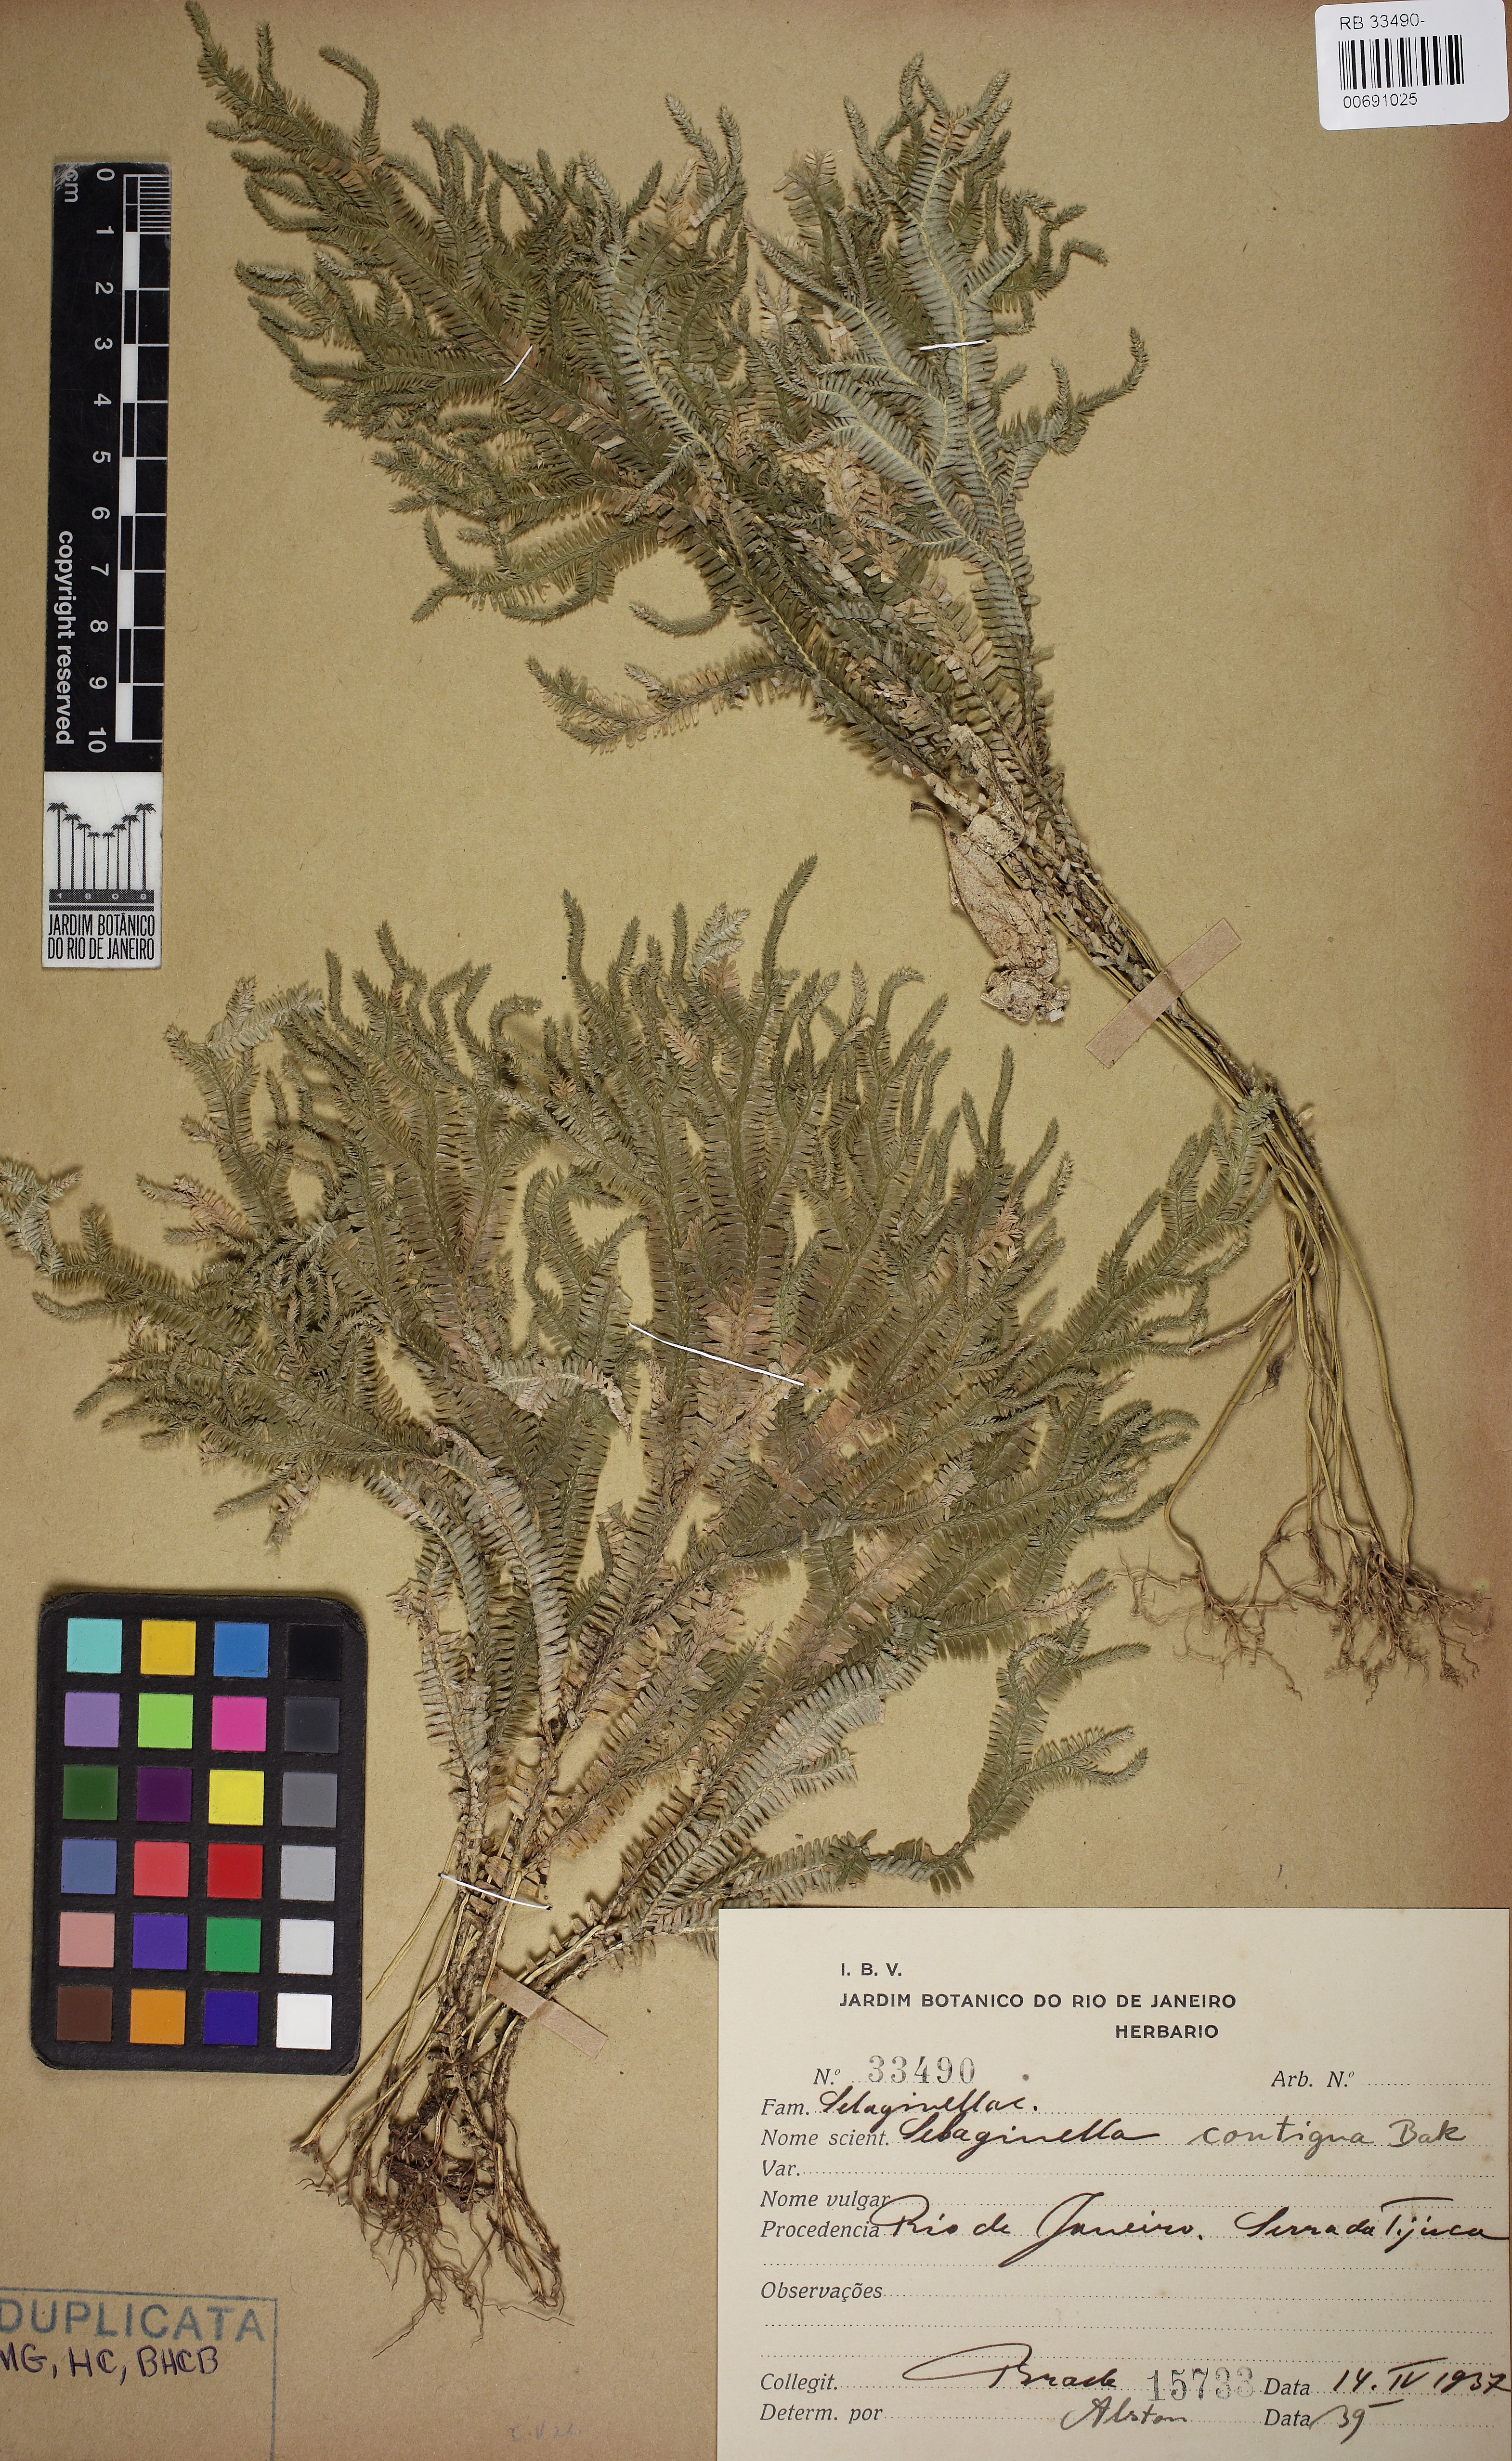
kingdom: Plantae
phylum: Tracheophyta
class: Lycopodiopsida
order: Selaginellales
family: Selaginellaceae
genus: Selaginella
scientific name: Selaginella contigua
